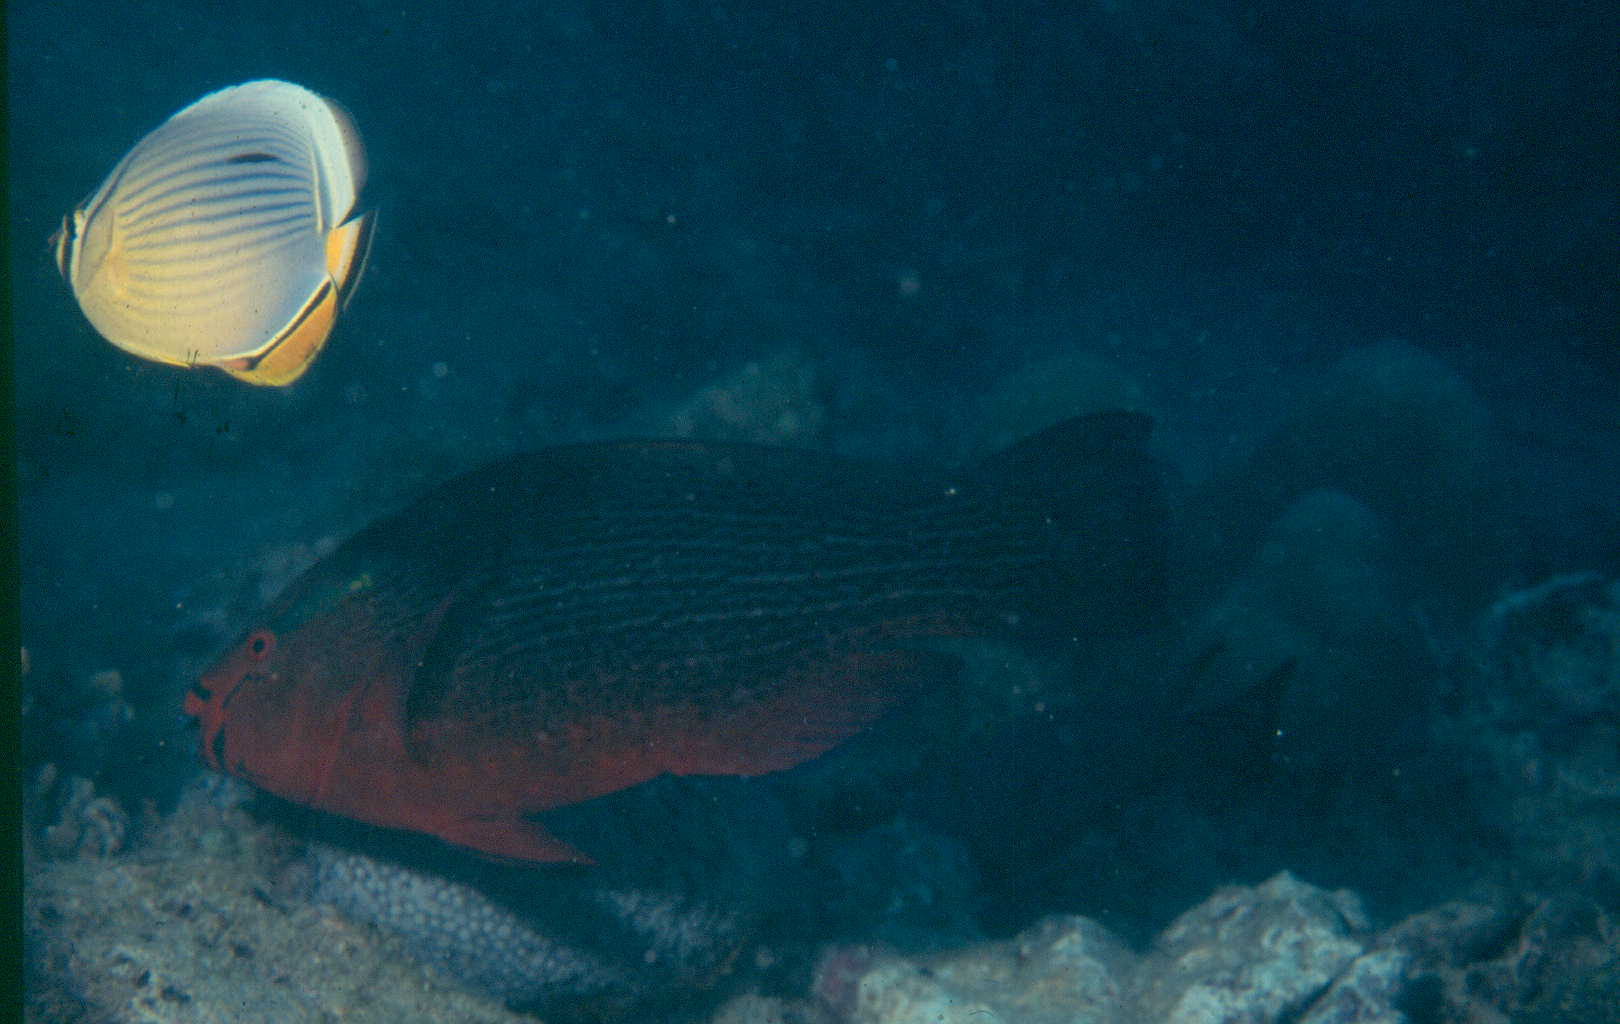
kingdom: Animalia
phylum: Chordata
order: Perciformes
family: Scaridae
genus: Scarus
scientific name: Scarus niger
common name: Dusky parrotfish
